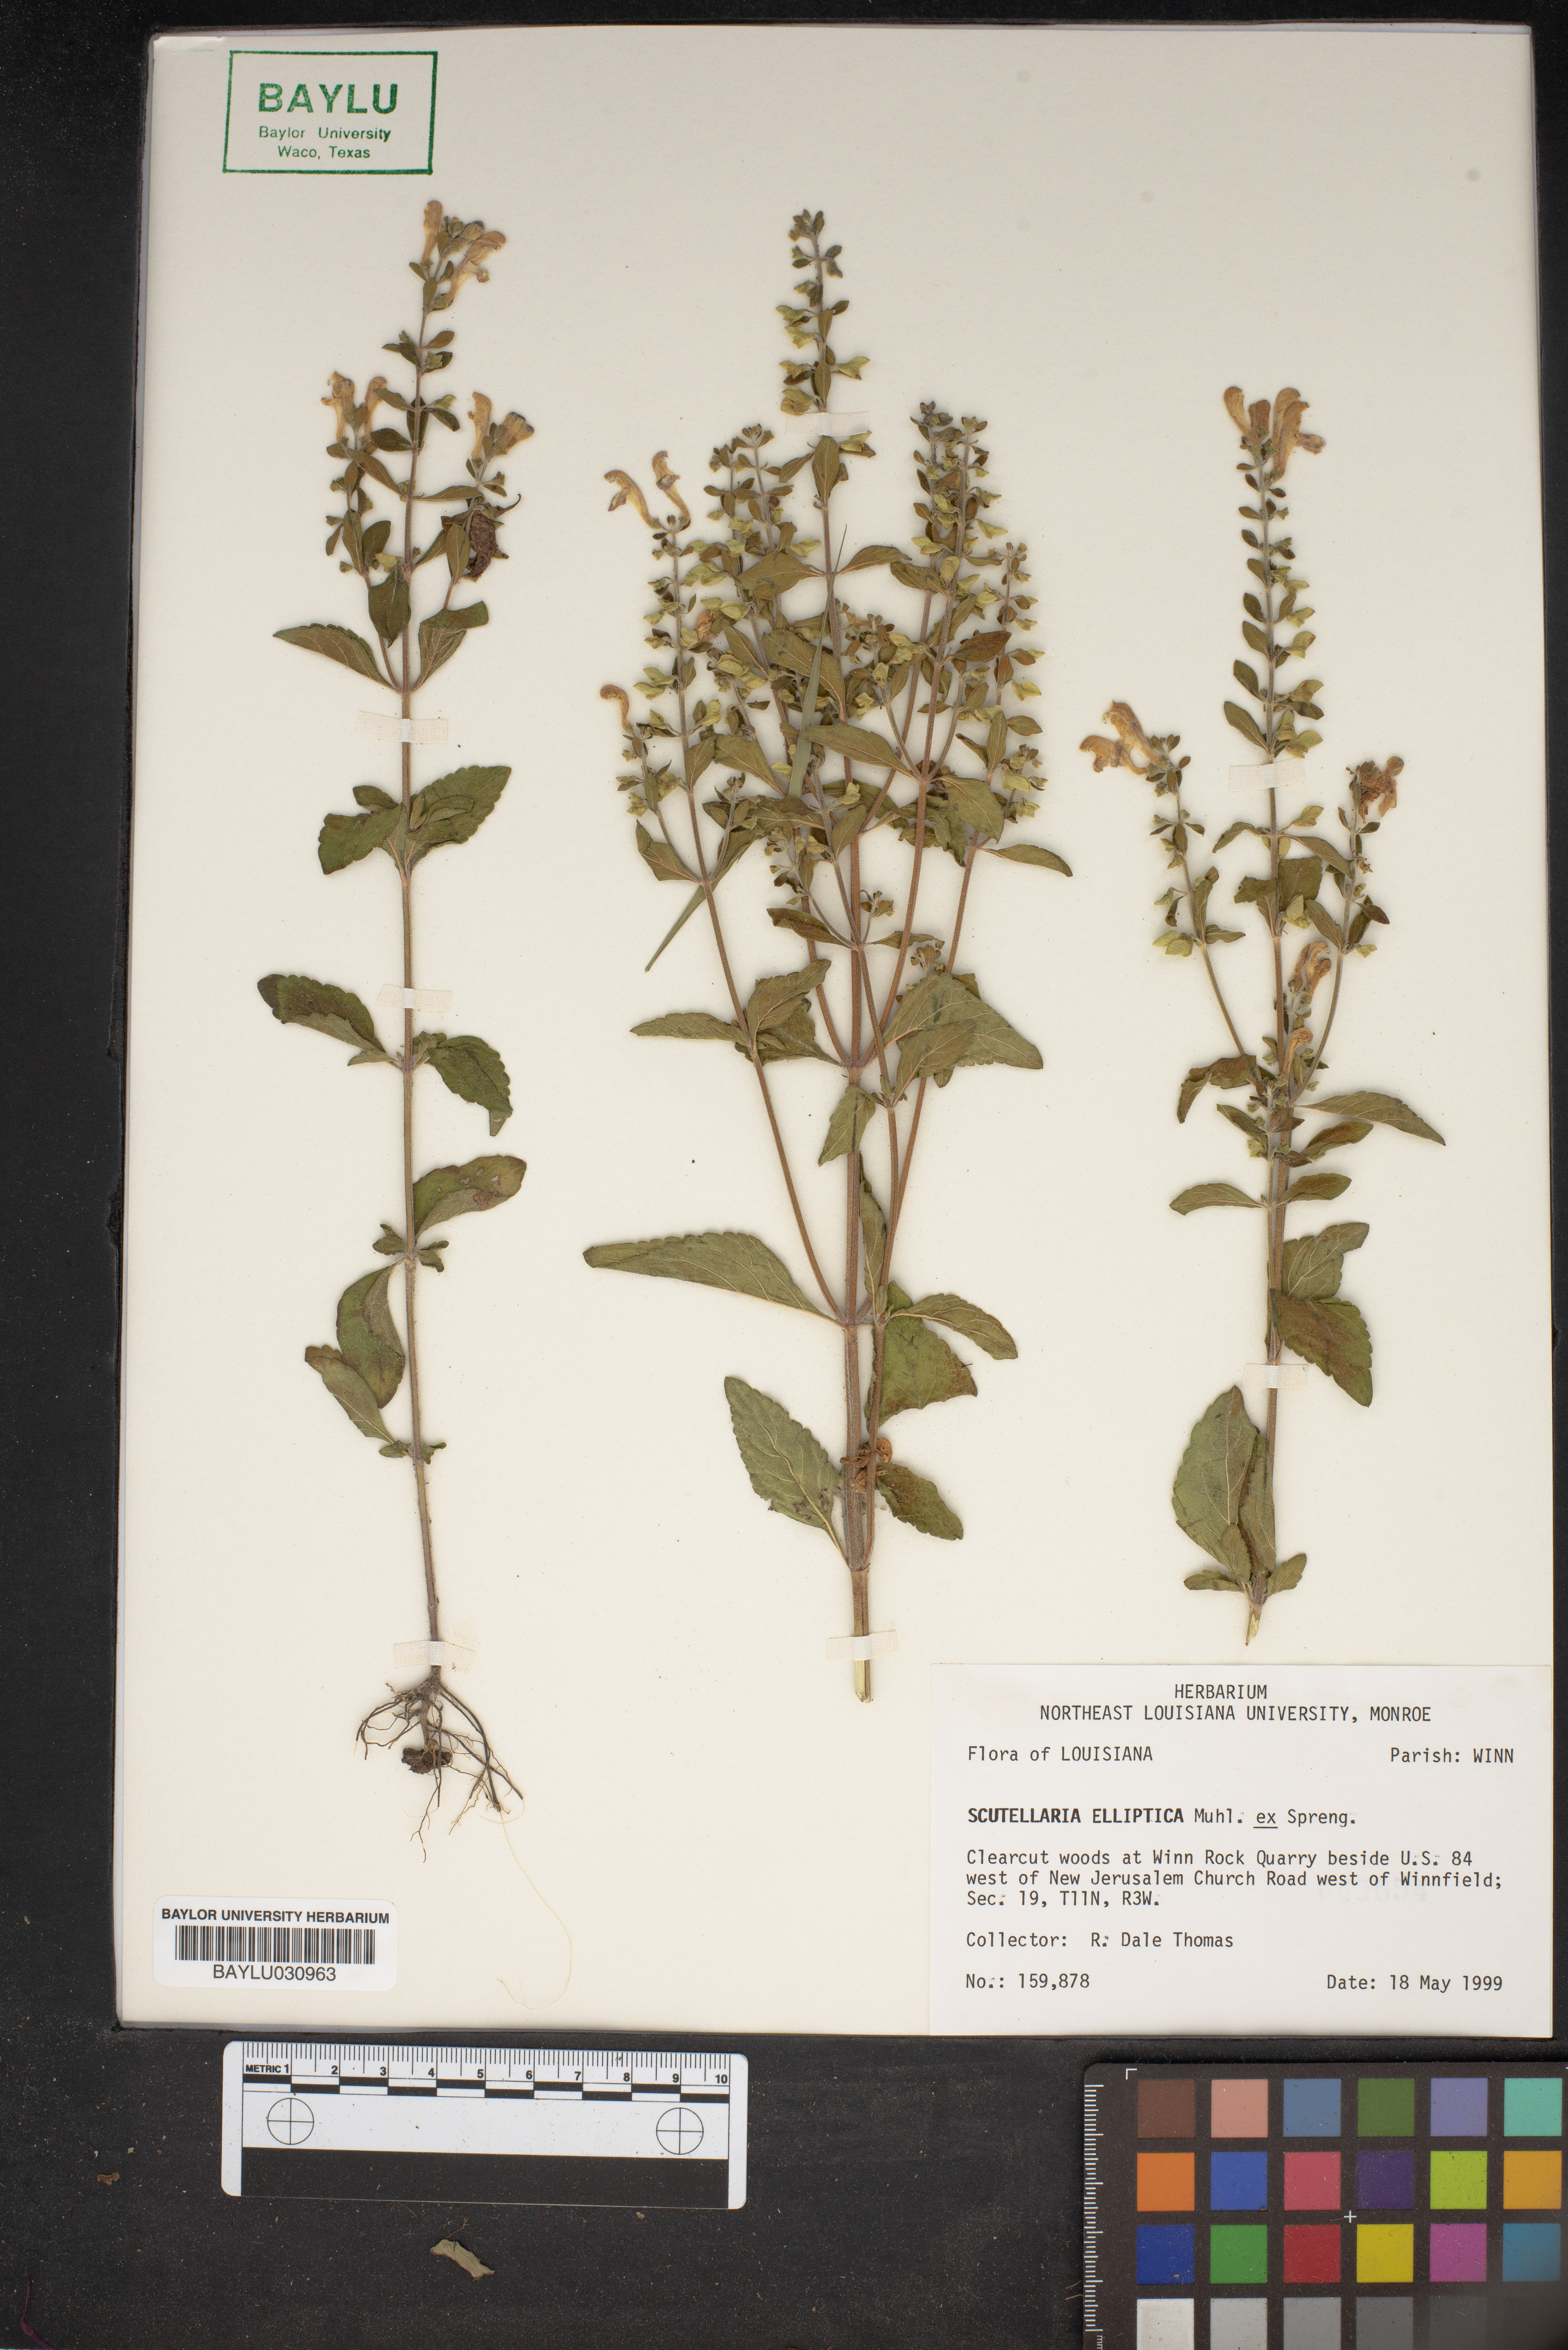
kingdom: Plantae
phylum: Tracheophyta
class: Magnoliopsida
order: Lamiales
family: Lamiaceae
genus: Scutellaria
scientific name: Scutellaria elliptica
